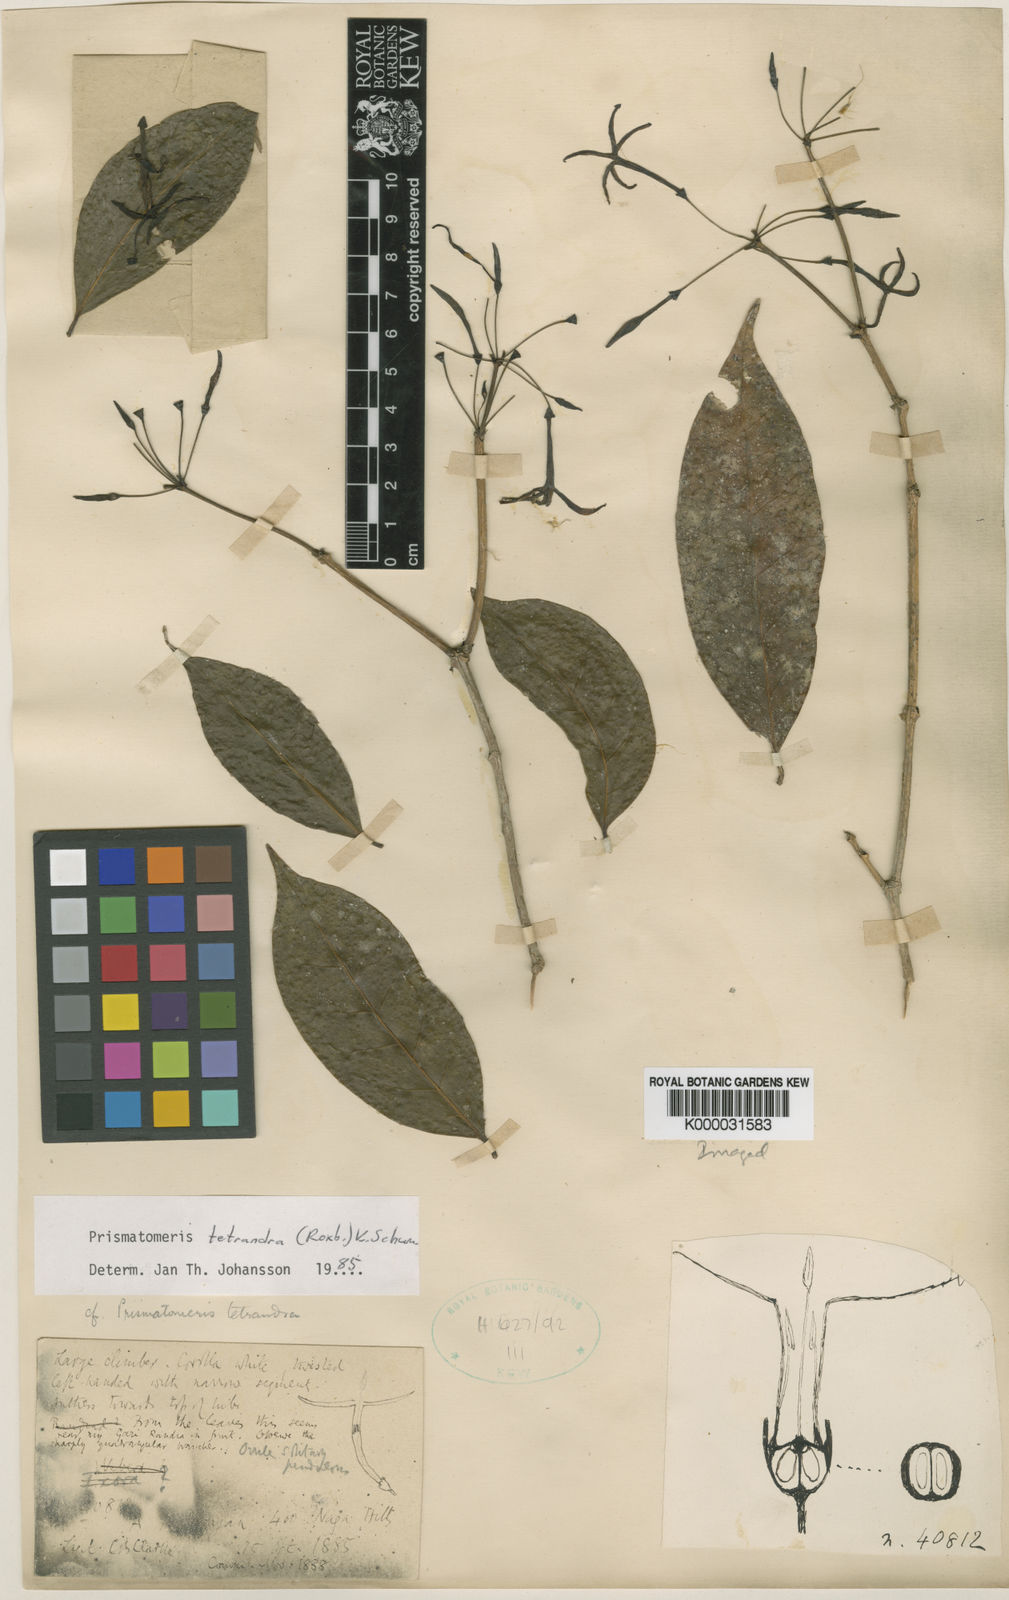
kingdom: Plantae
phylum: Tracheophyta
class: Magnoliopsida
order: Gentianales
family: Rubiaceae
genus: Prismatomeris
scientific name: Prismatomeris tetrandra
